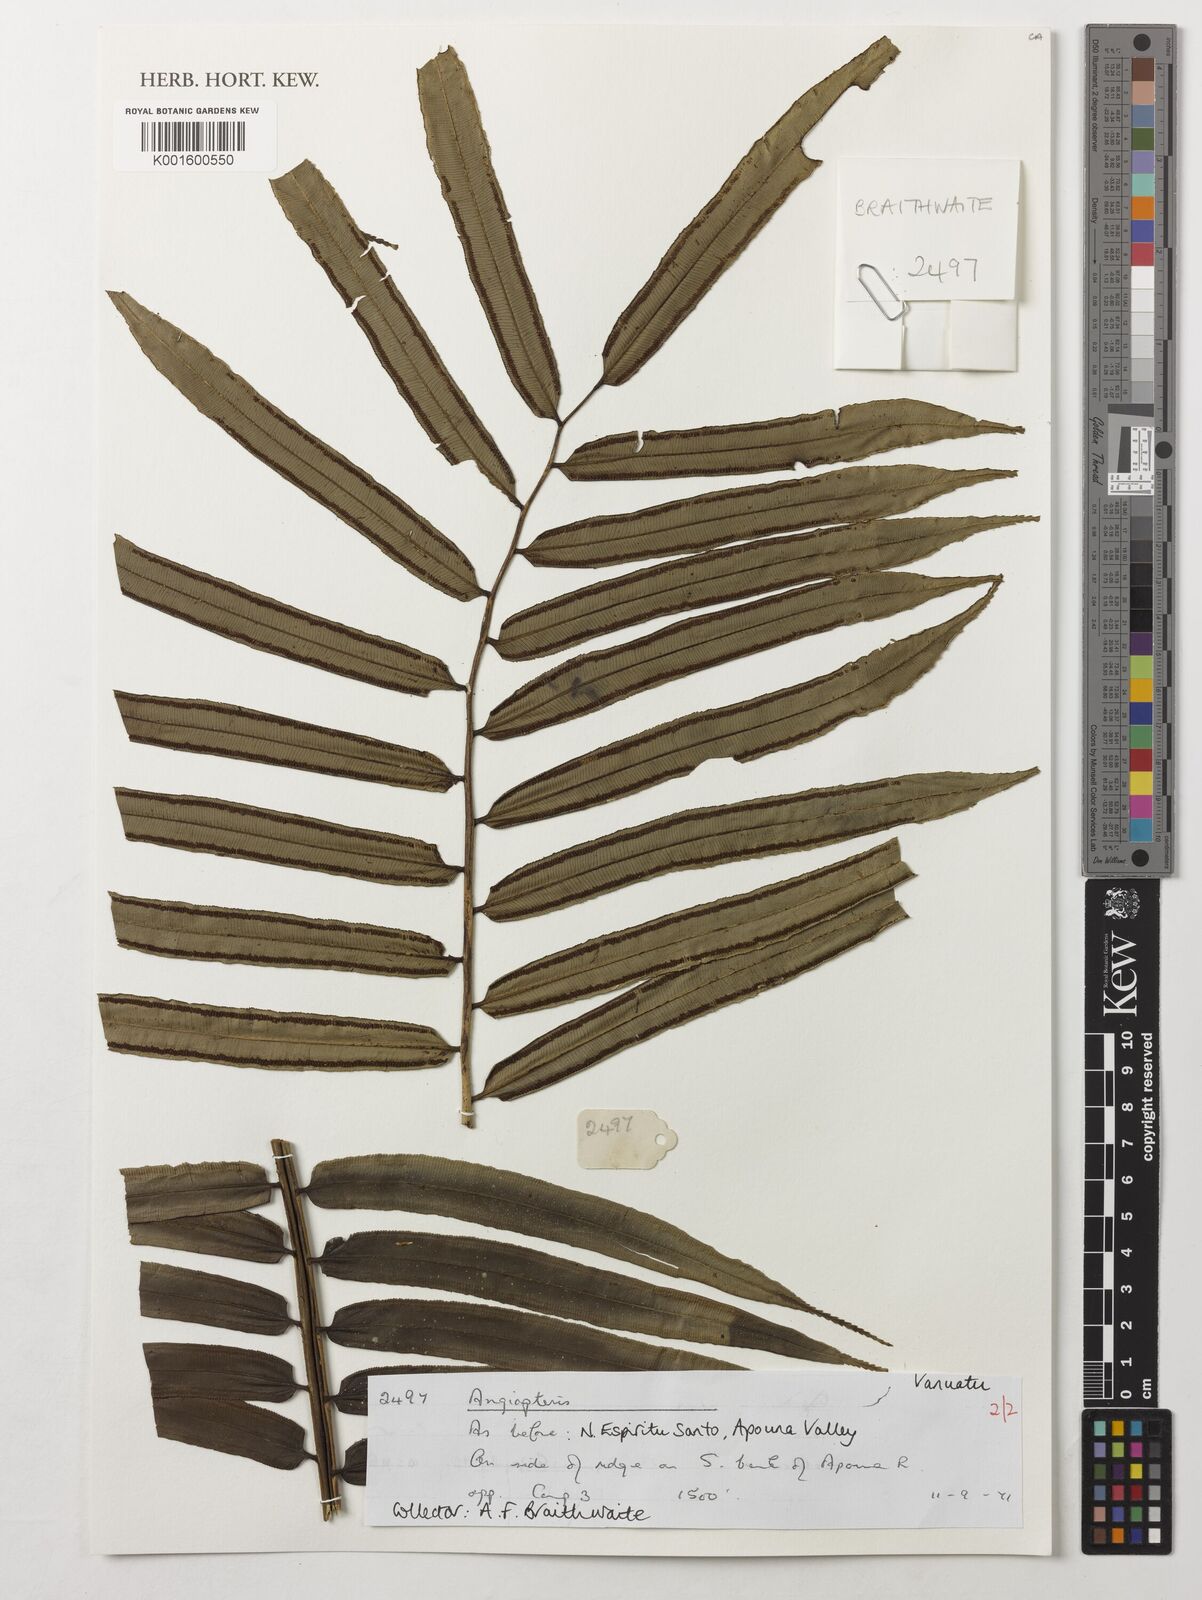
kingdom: Plantae
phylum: Tracheophyta
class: Polypodiopsida
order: Marattiales
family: Marattiaceae
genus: Angiopteris
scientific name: Angiopteris
